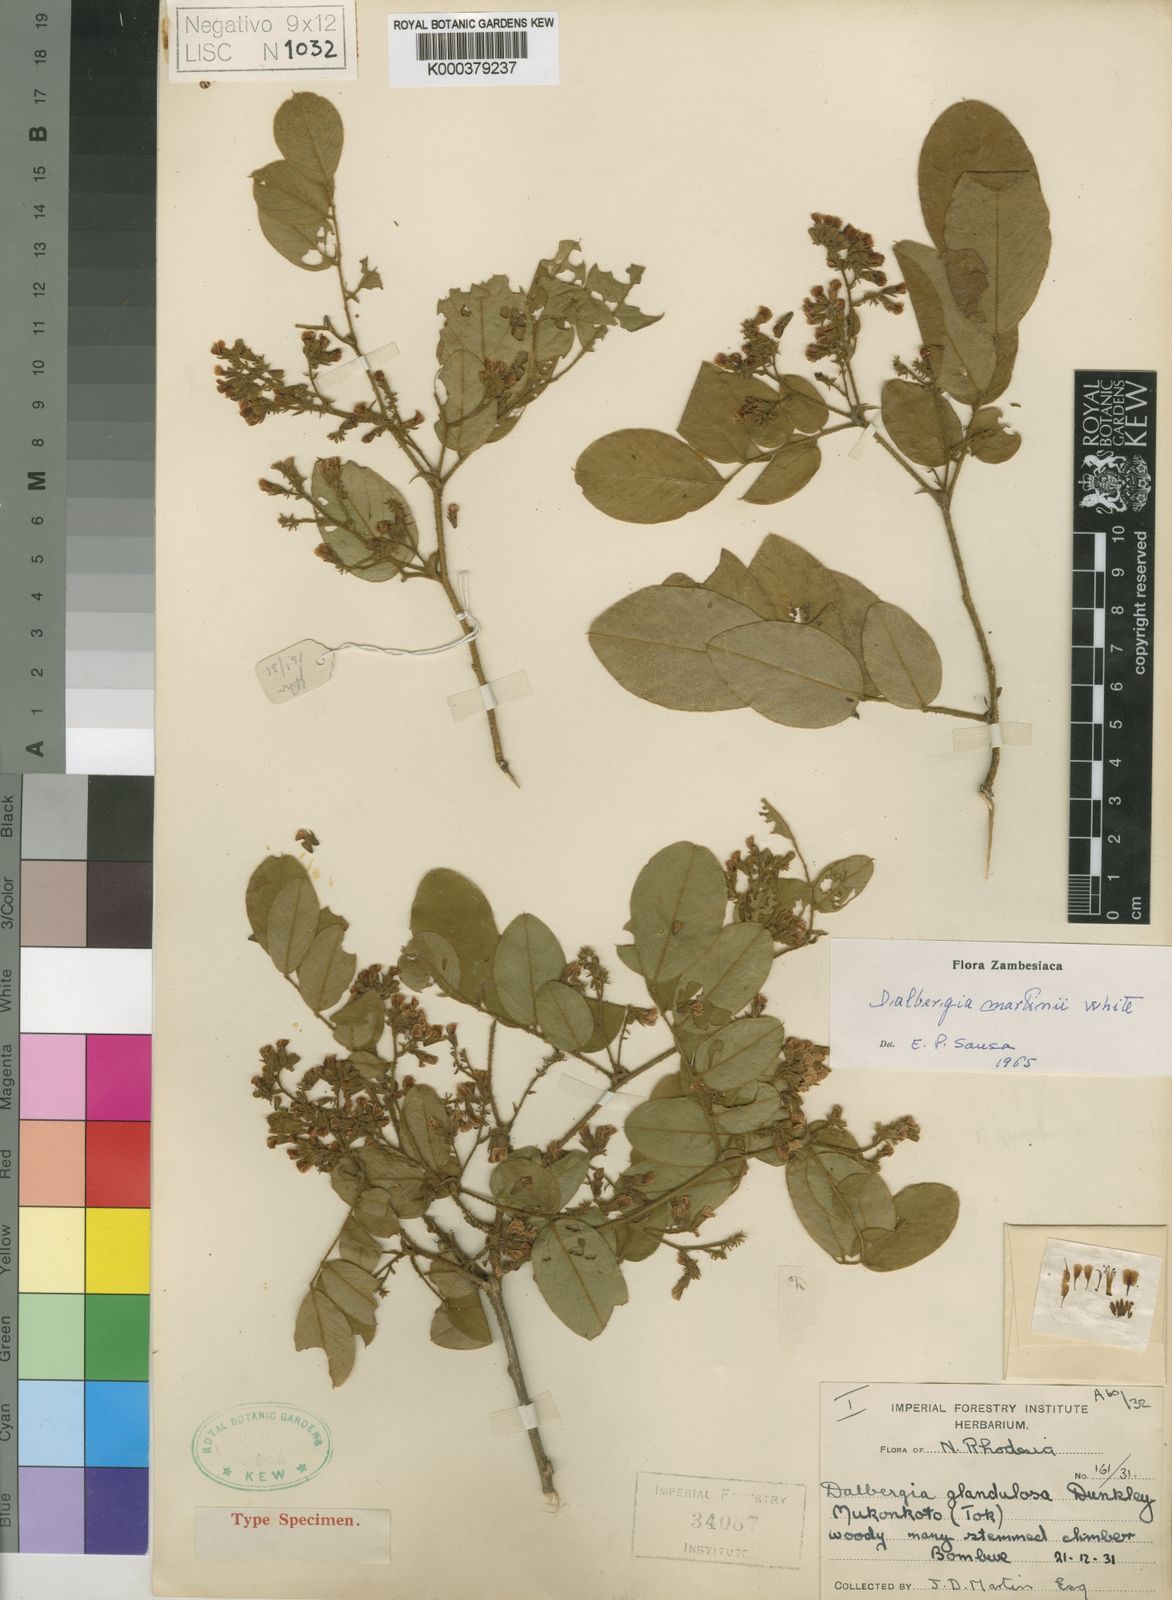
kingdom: Plantae
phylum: Tracheophyta
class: Magnoliopsida
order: Fabales
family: Fabaceae
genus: Dalbergia
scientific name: Dalbergia martini
